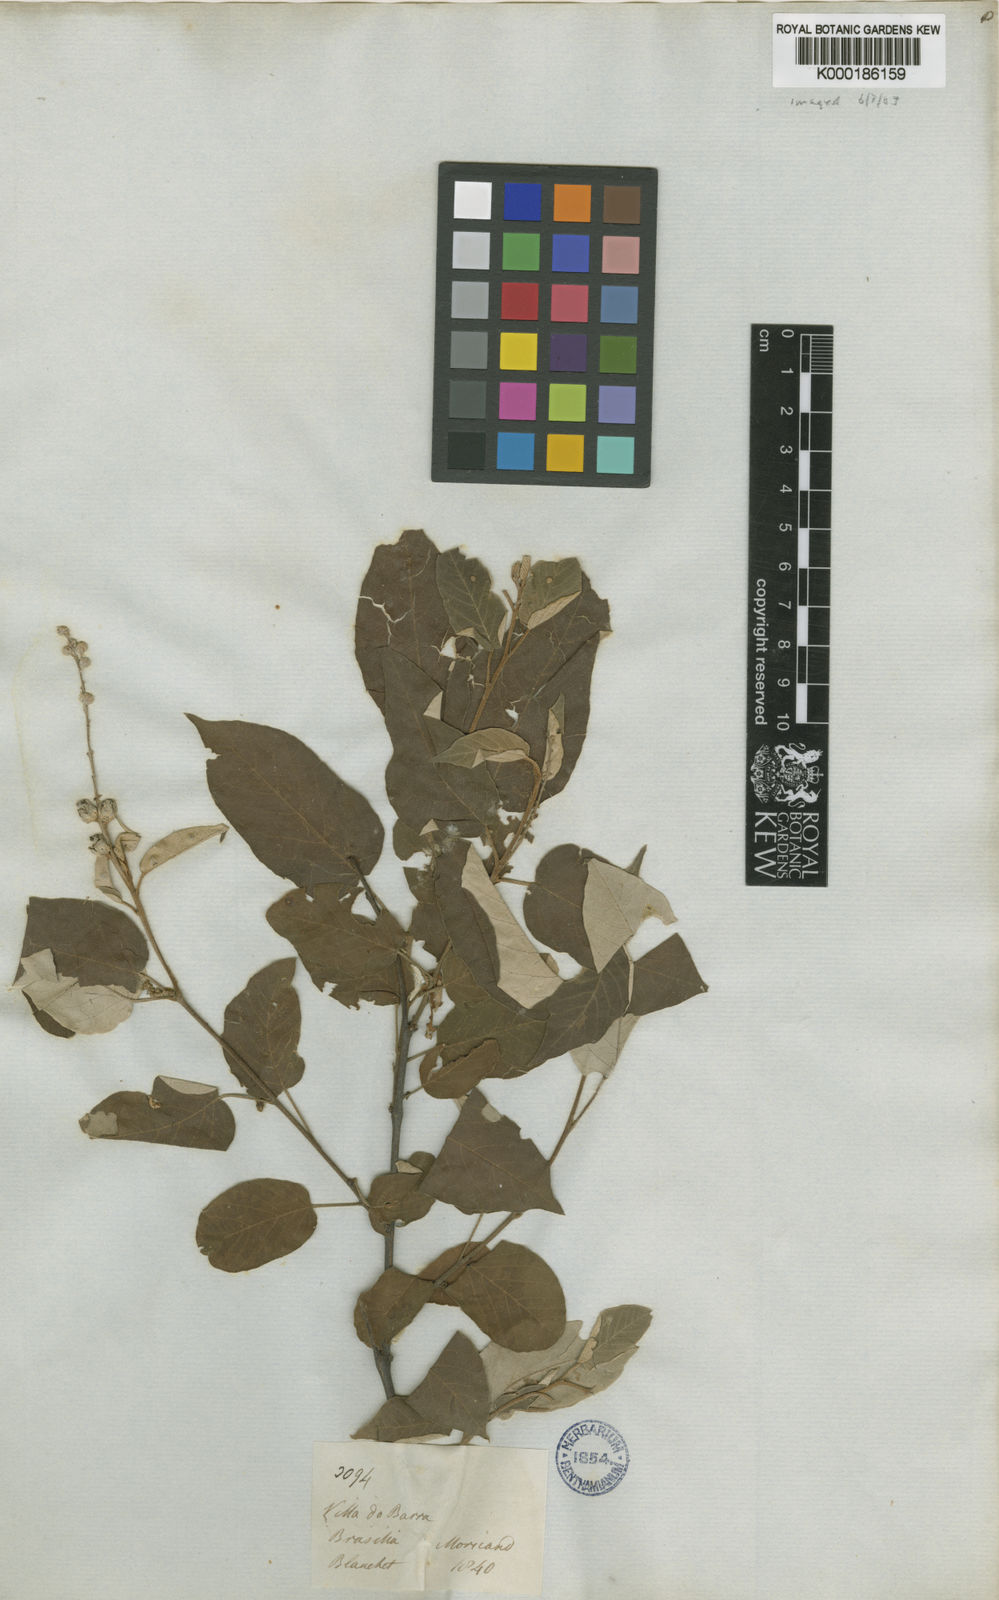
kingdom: Plantae
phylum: Tracheophyta
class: Magnoliopsida
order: Malpighiales
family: Euphorbiaceae
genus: Croton
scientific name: Croton blanchetianus
